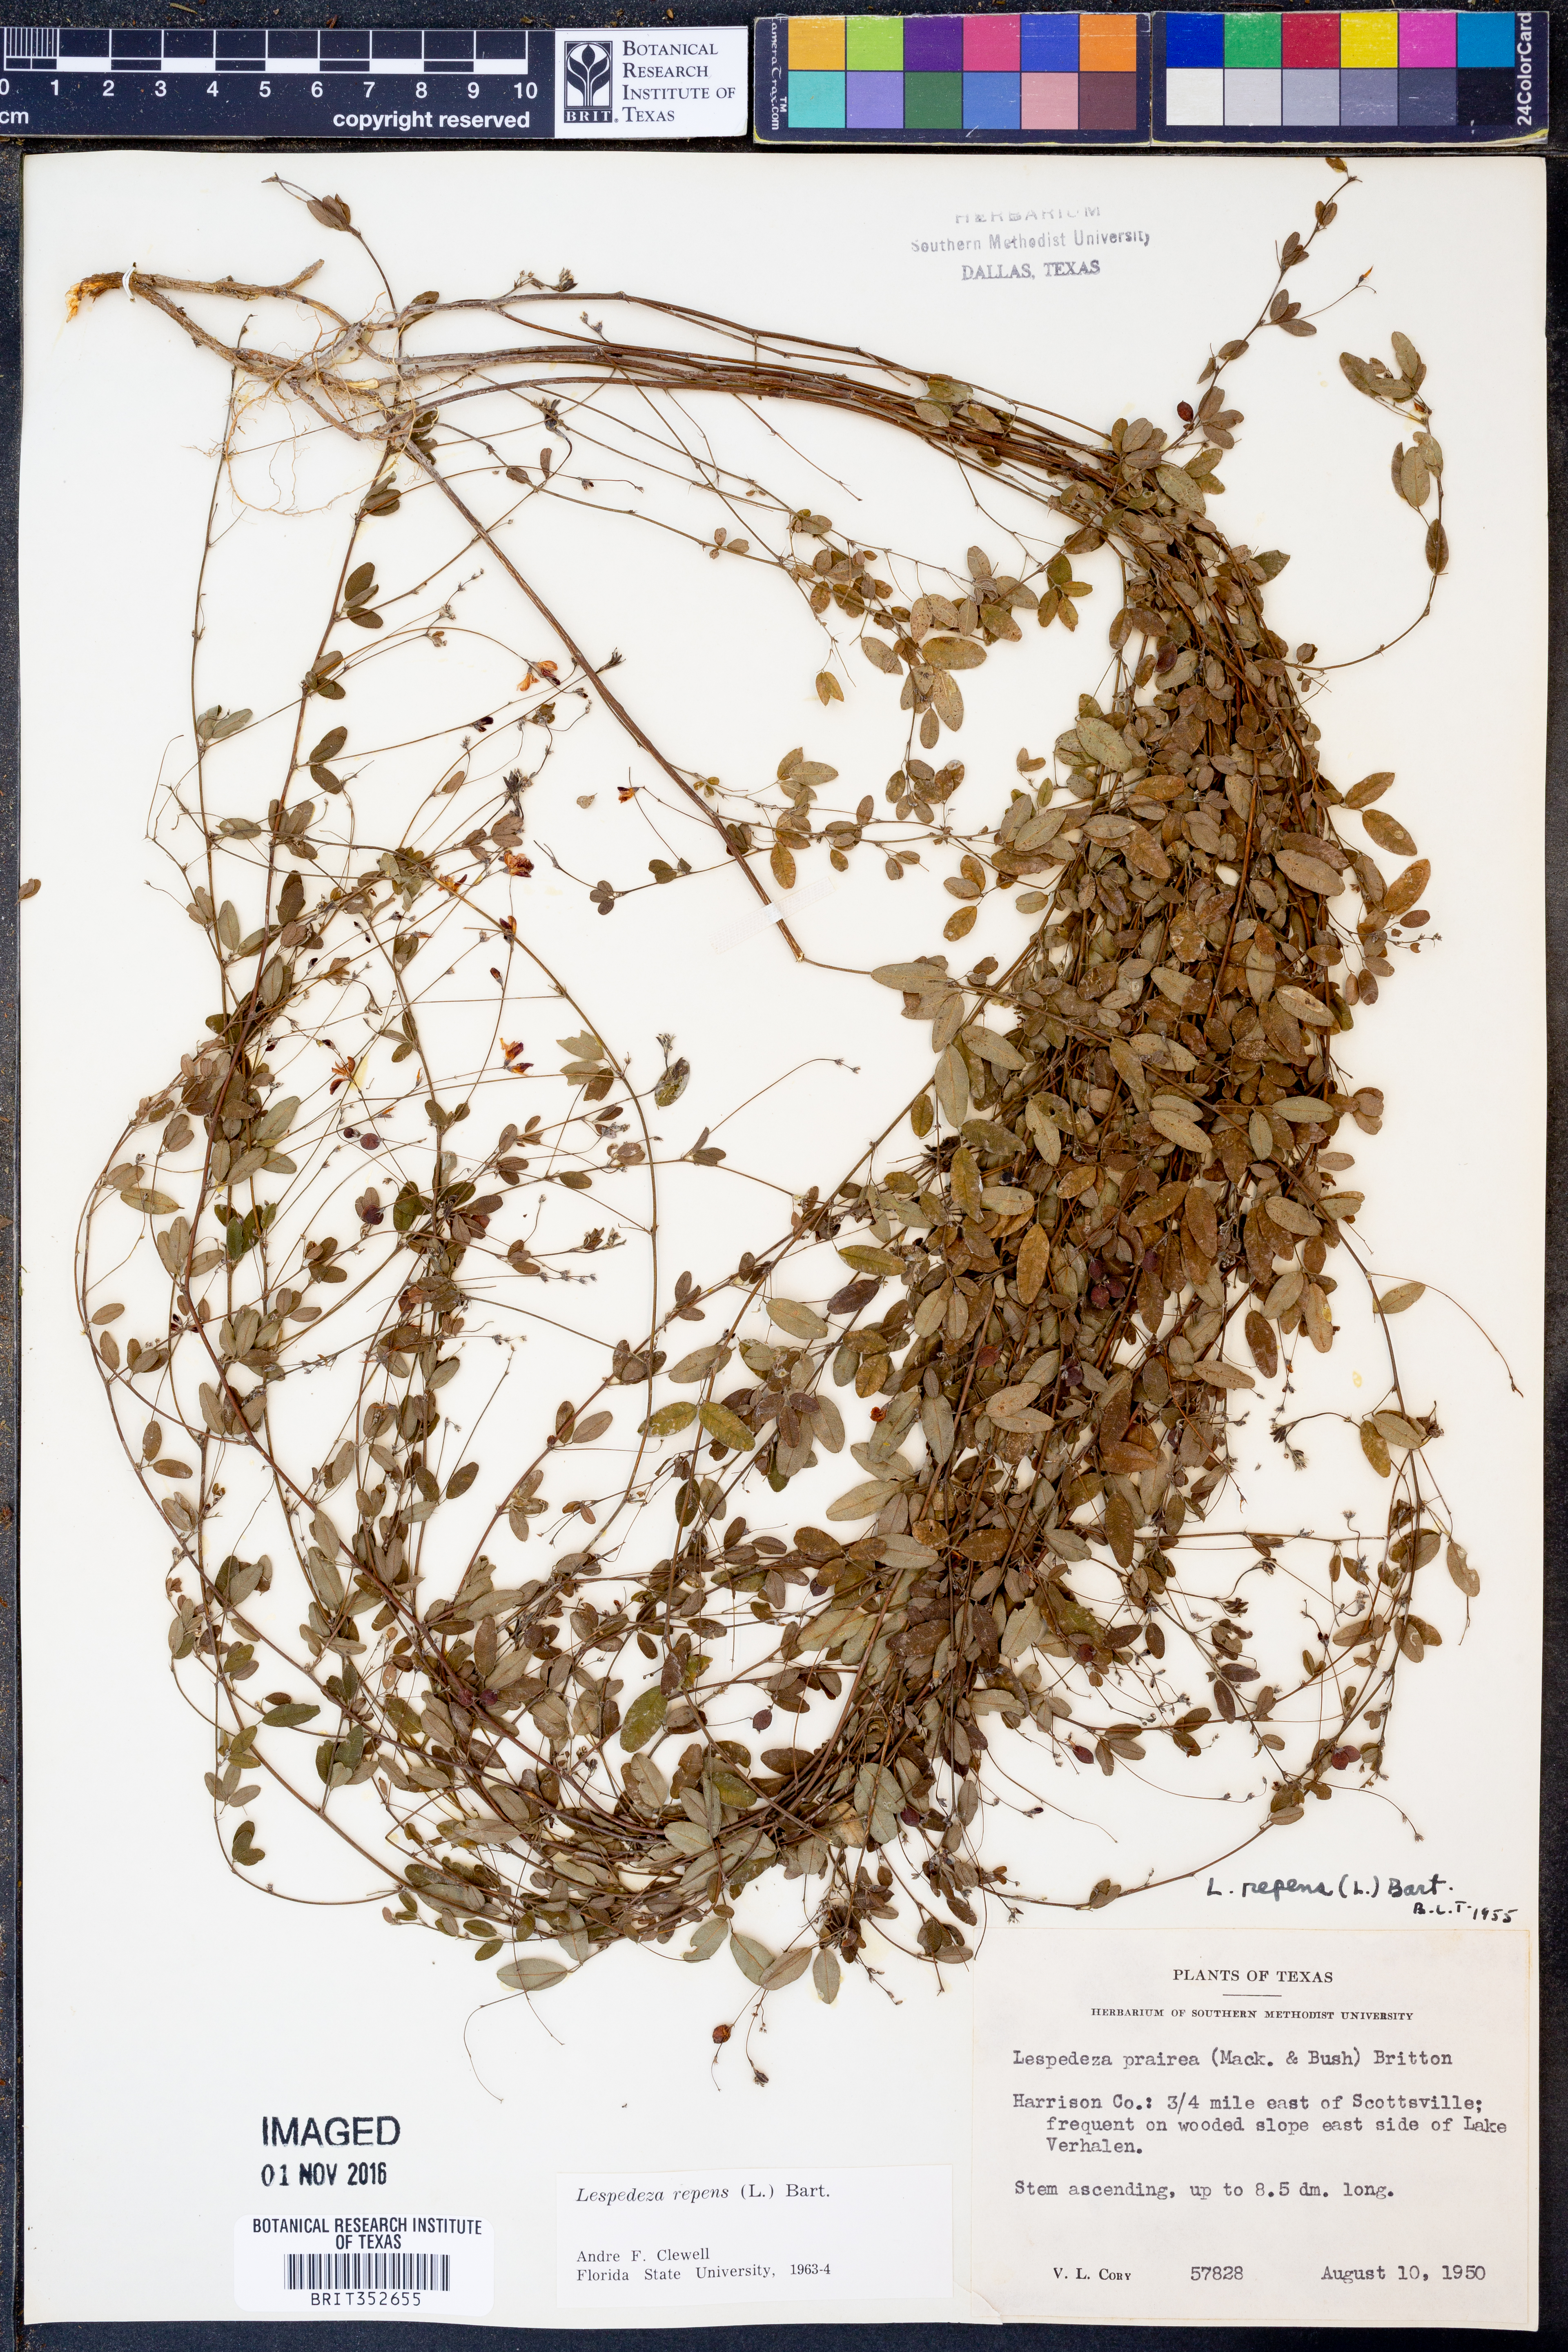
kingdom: Plantae
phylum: Tracheophyta
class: Magnoliopsida
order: Fabales
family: Fabaceae
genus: Lespedeza
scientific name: Lespedeza repens
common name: Creeping bush-clover
